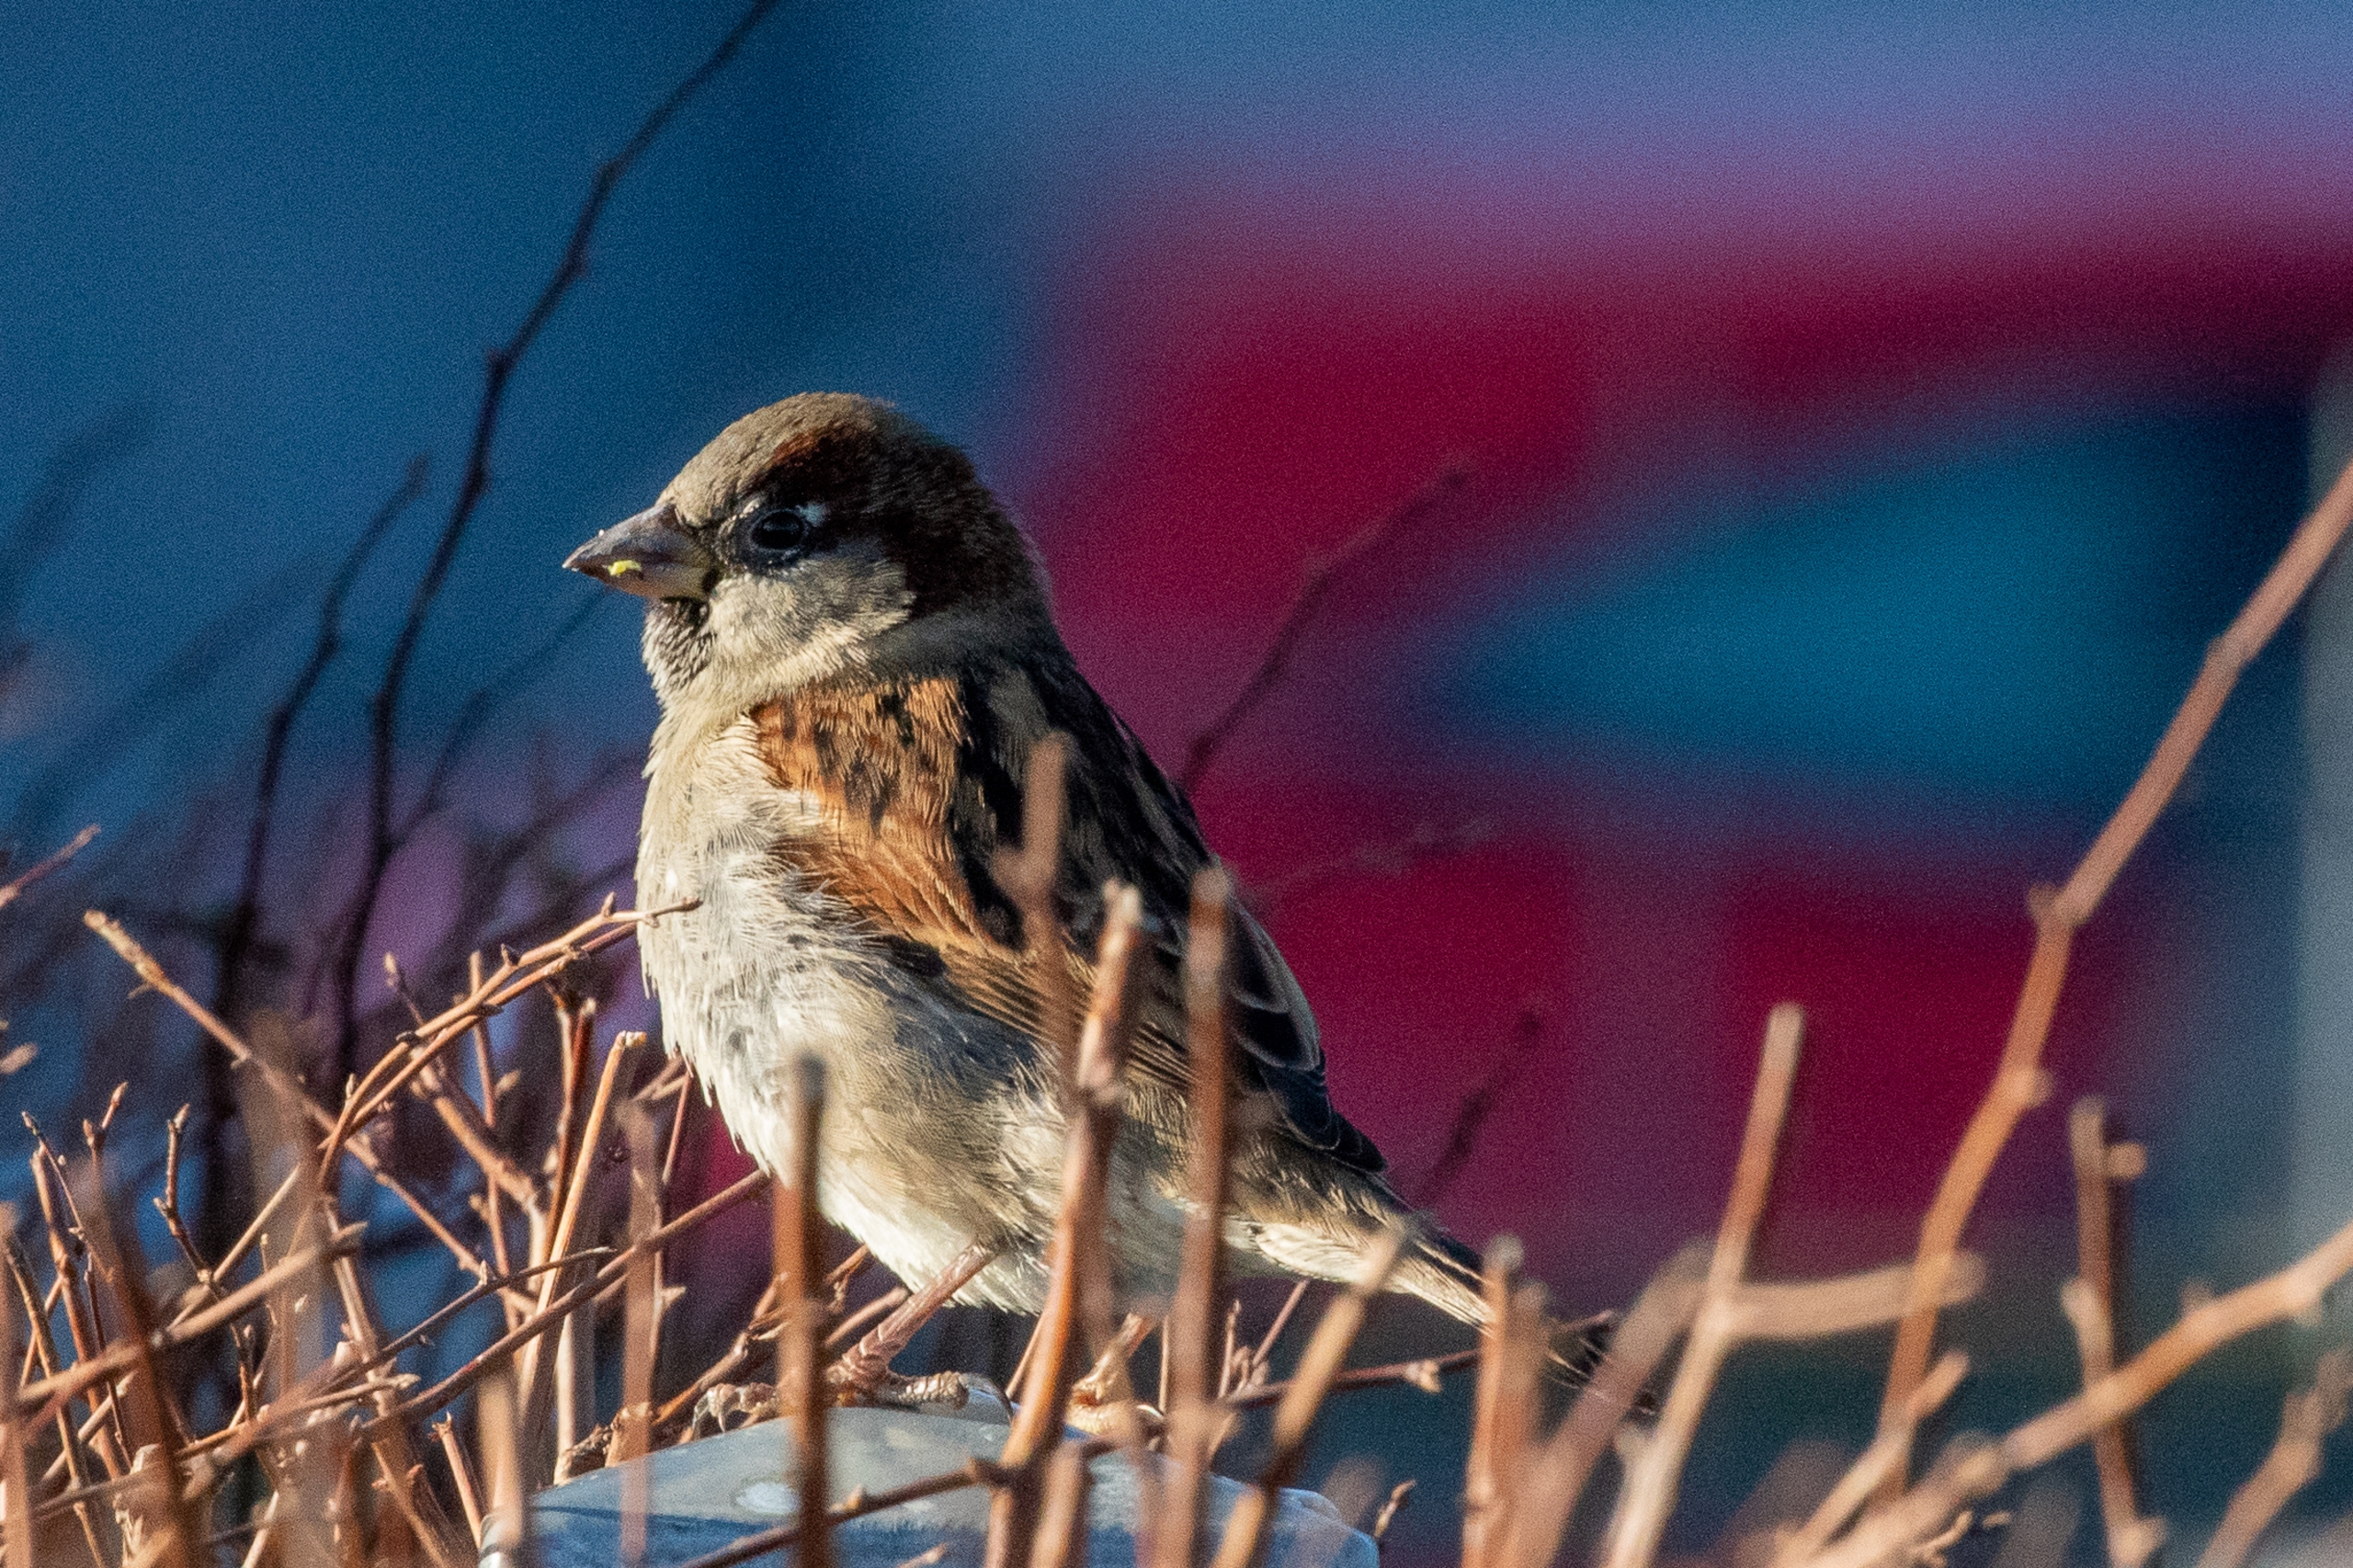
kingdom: Animalia
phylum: Chordata
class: Aves
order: Passeriformes
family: Passeridae
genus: Passer
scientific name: Passer domesticus
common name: Gråspurv
